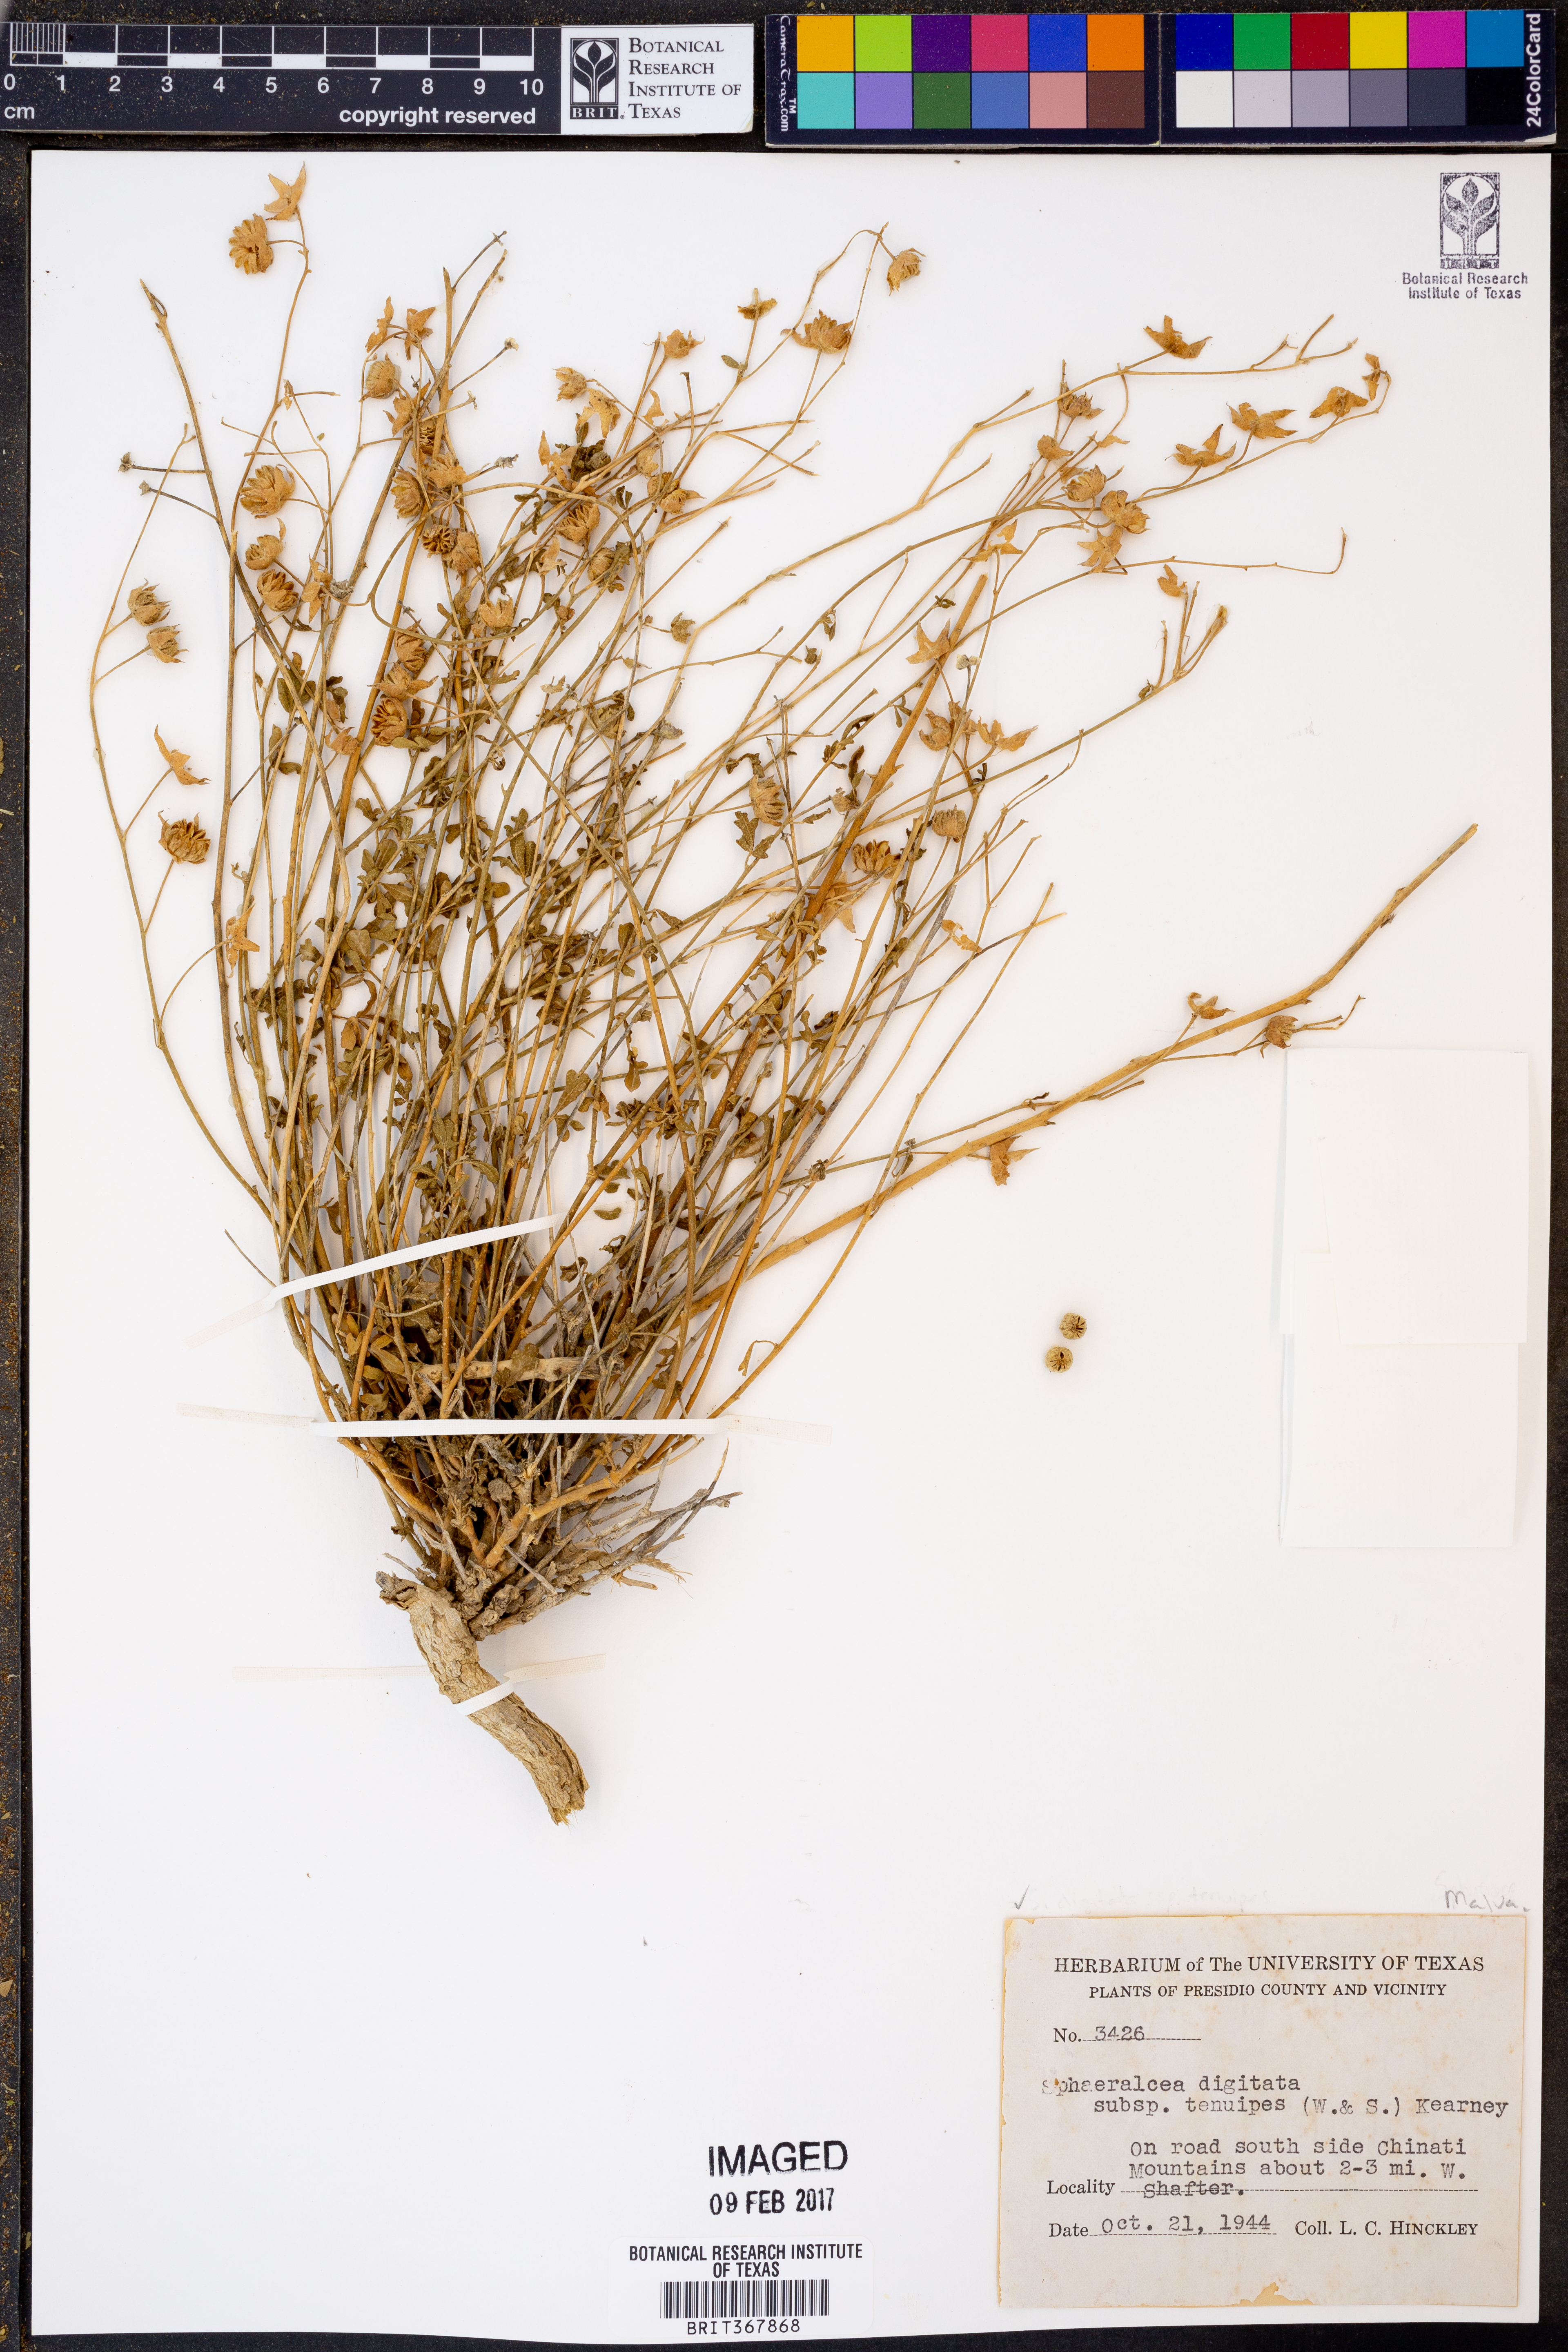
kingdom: Plantae
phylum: Tracheophyta
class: Magnoliopsida
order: Malvales
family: Malvaceae
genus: Sphaeralcea
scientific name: Sphaeralcea digitata
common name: Juniper-gobe-mallow
